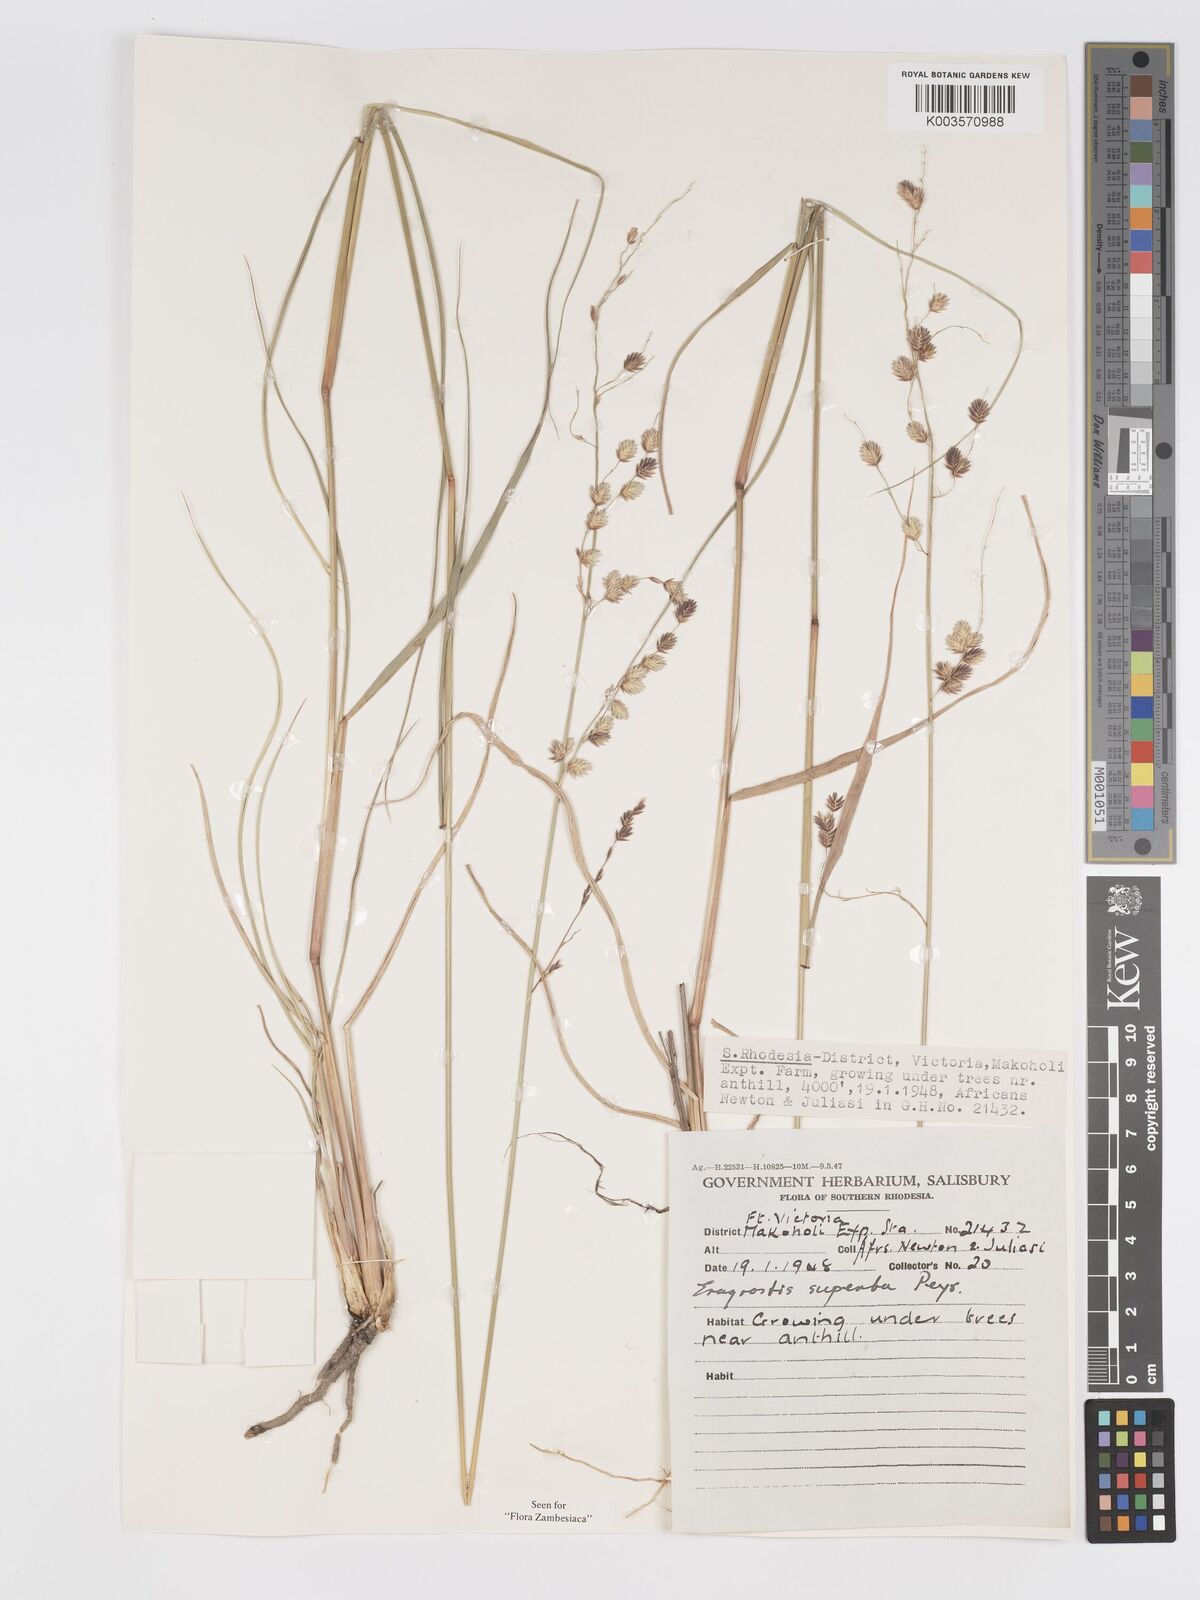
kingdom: Plantae
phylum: Tracheophyta
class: Liliopsida
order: Poales
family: Poaceae
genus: Eragrostis
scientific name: Eragrostis superba
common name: Wilman lovegrass
